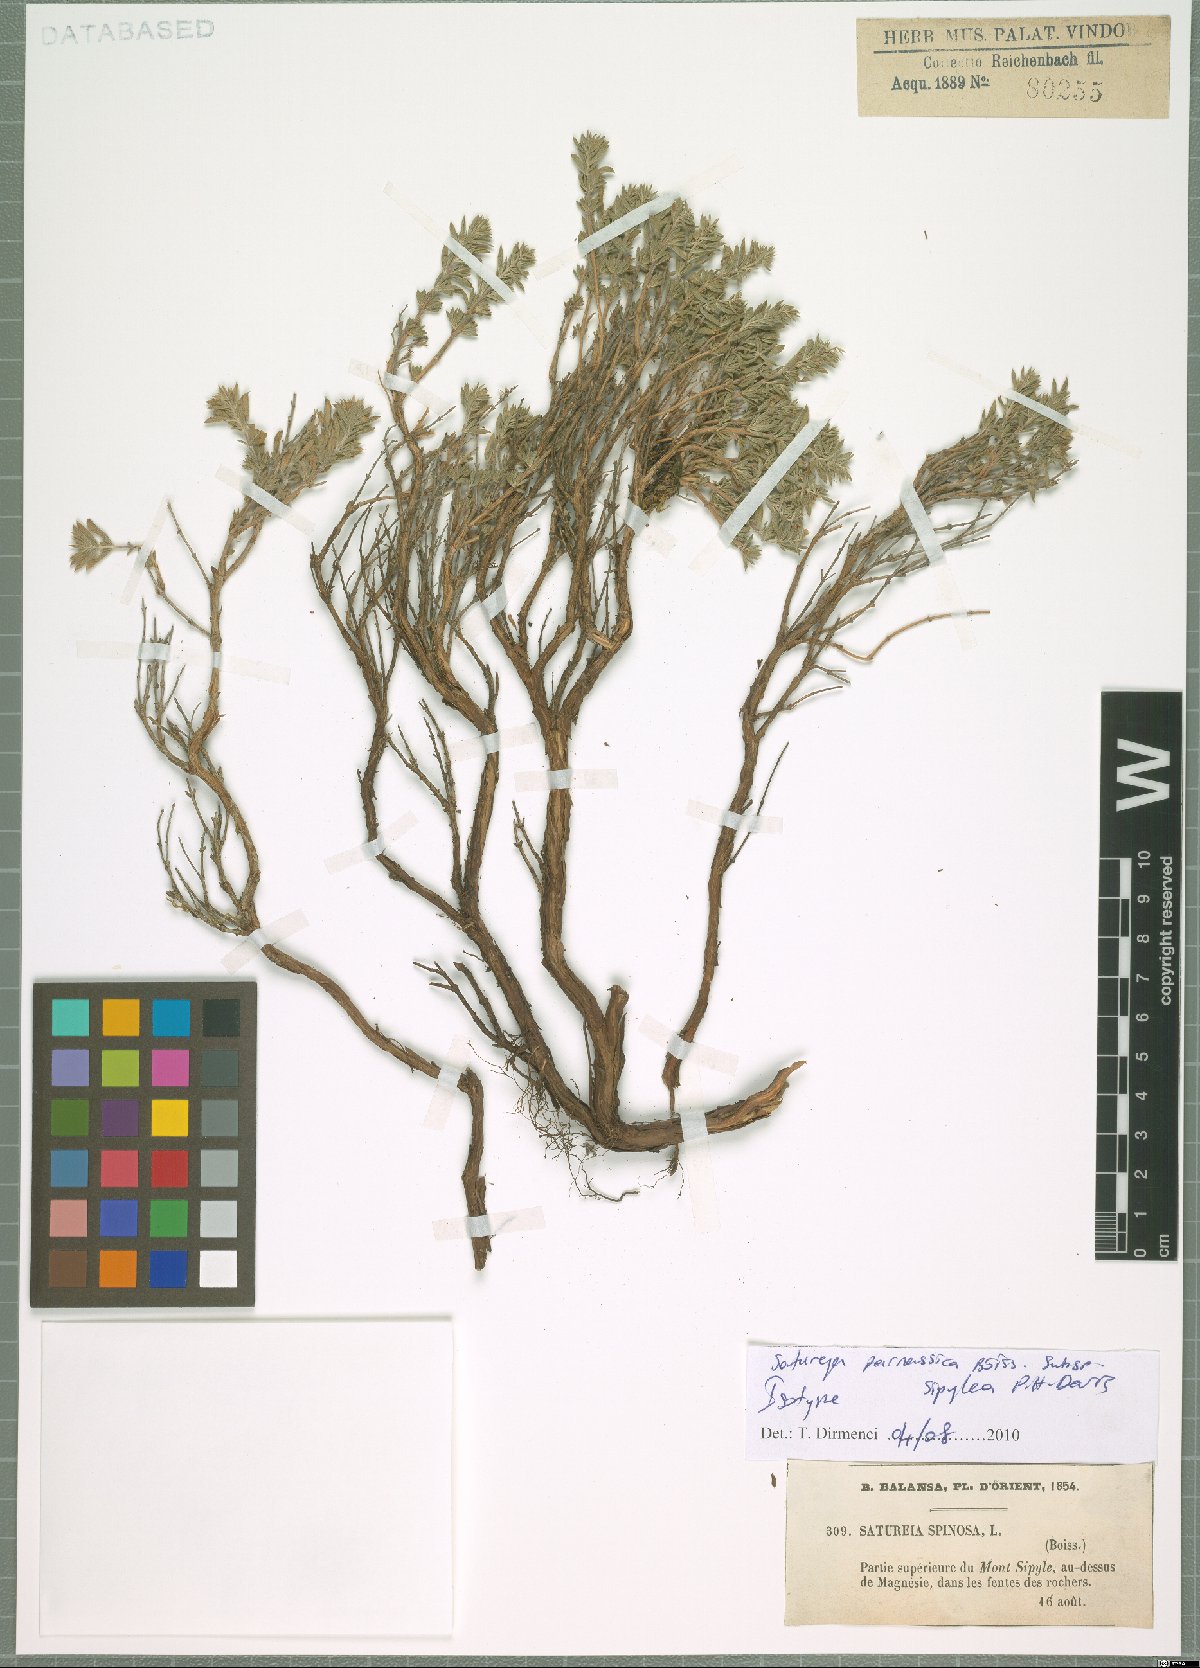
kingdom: Plantae
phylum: Tracheophyta
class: Magnoliopsida
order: Lamiales
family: Lamiaceae
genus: Satureja
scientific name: Satureja parnassica
